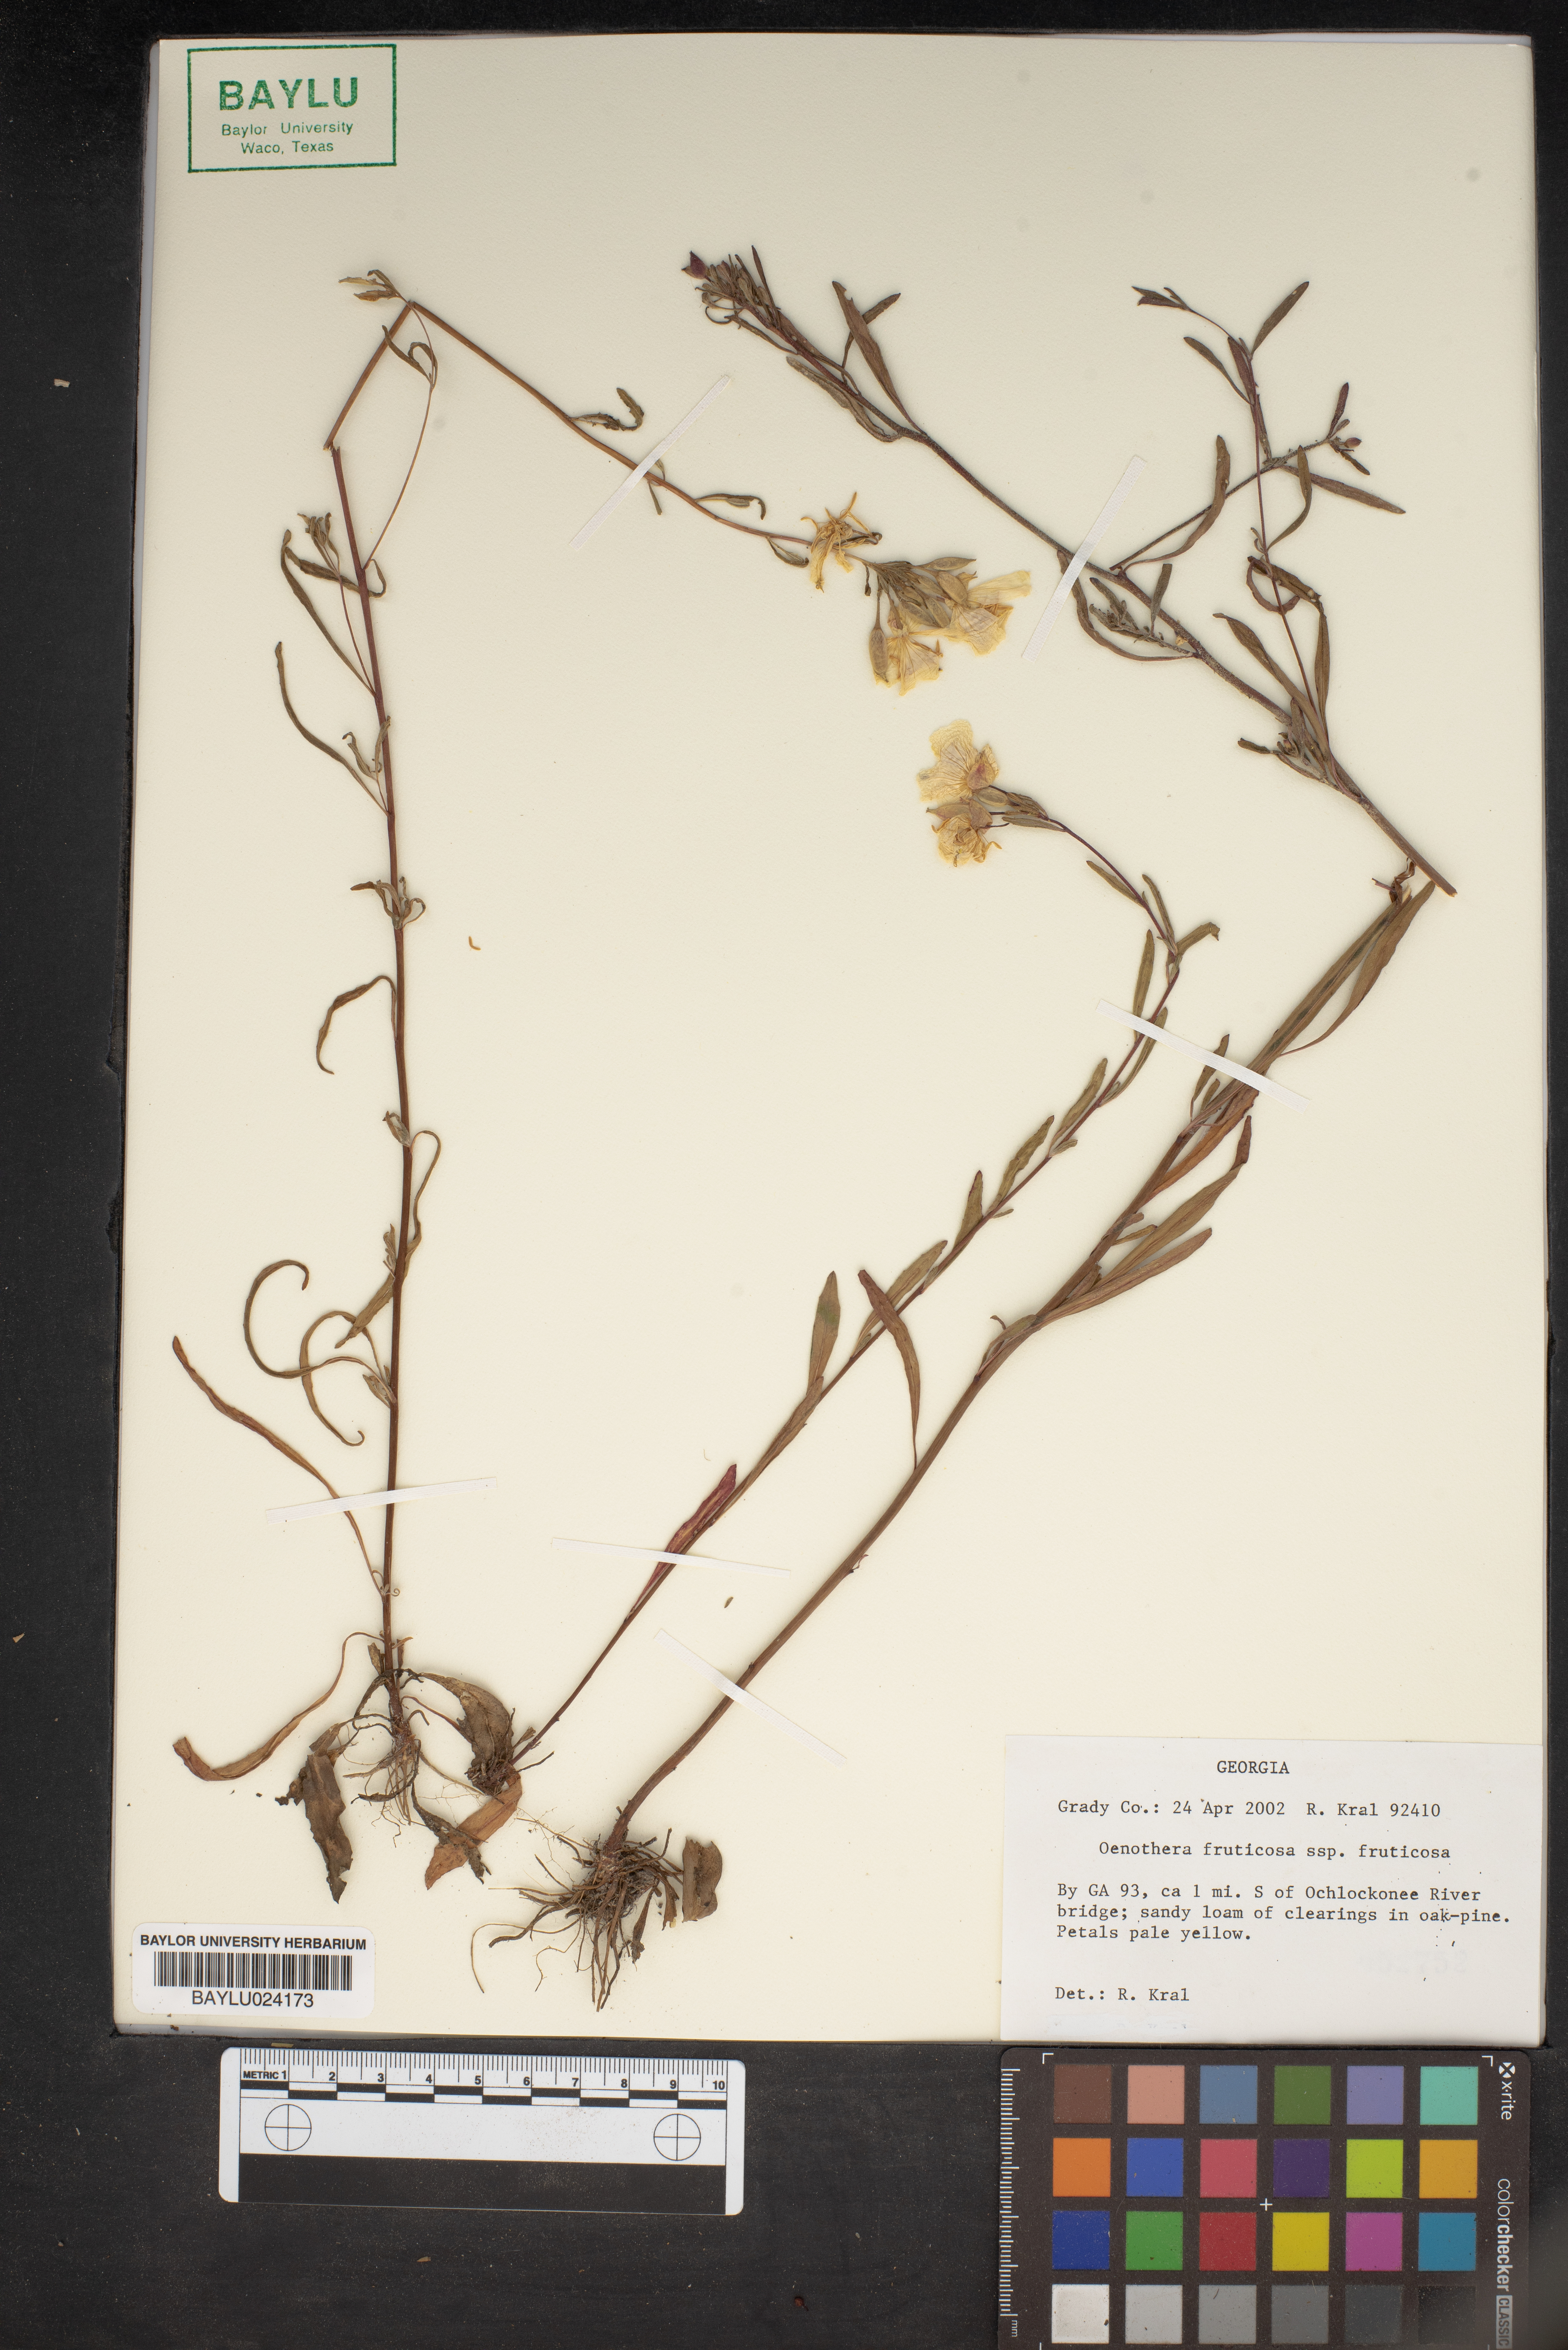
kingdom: Plantae
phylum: Tracheophyta
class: Magnoliopsida
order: Myrtales
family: Onagraceae
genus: Oenothera
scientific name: Oenothera fruticosa
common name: Southern sundrops
